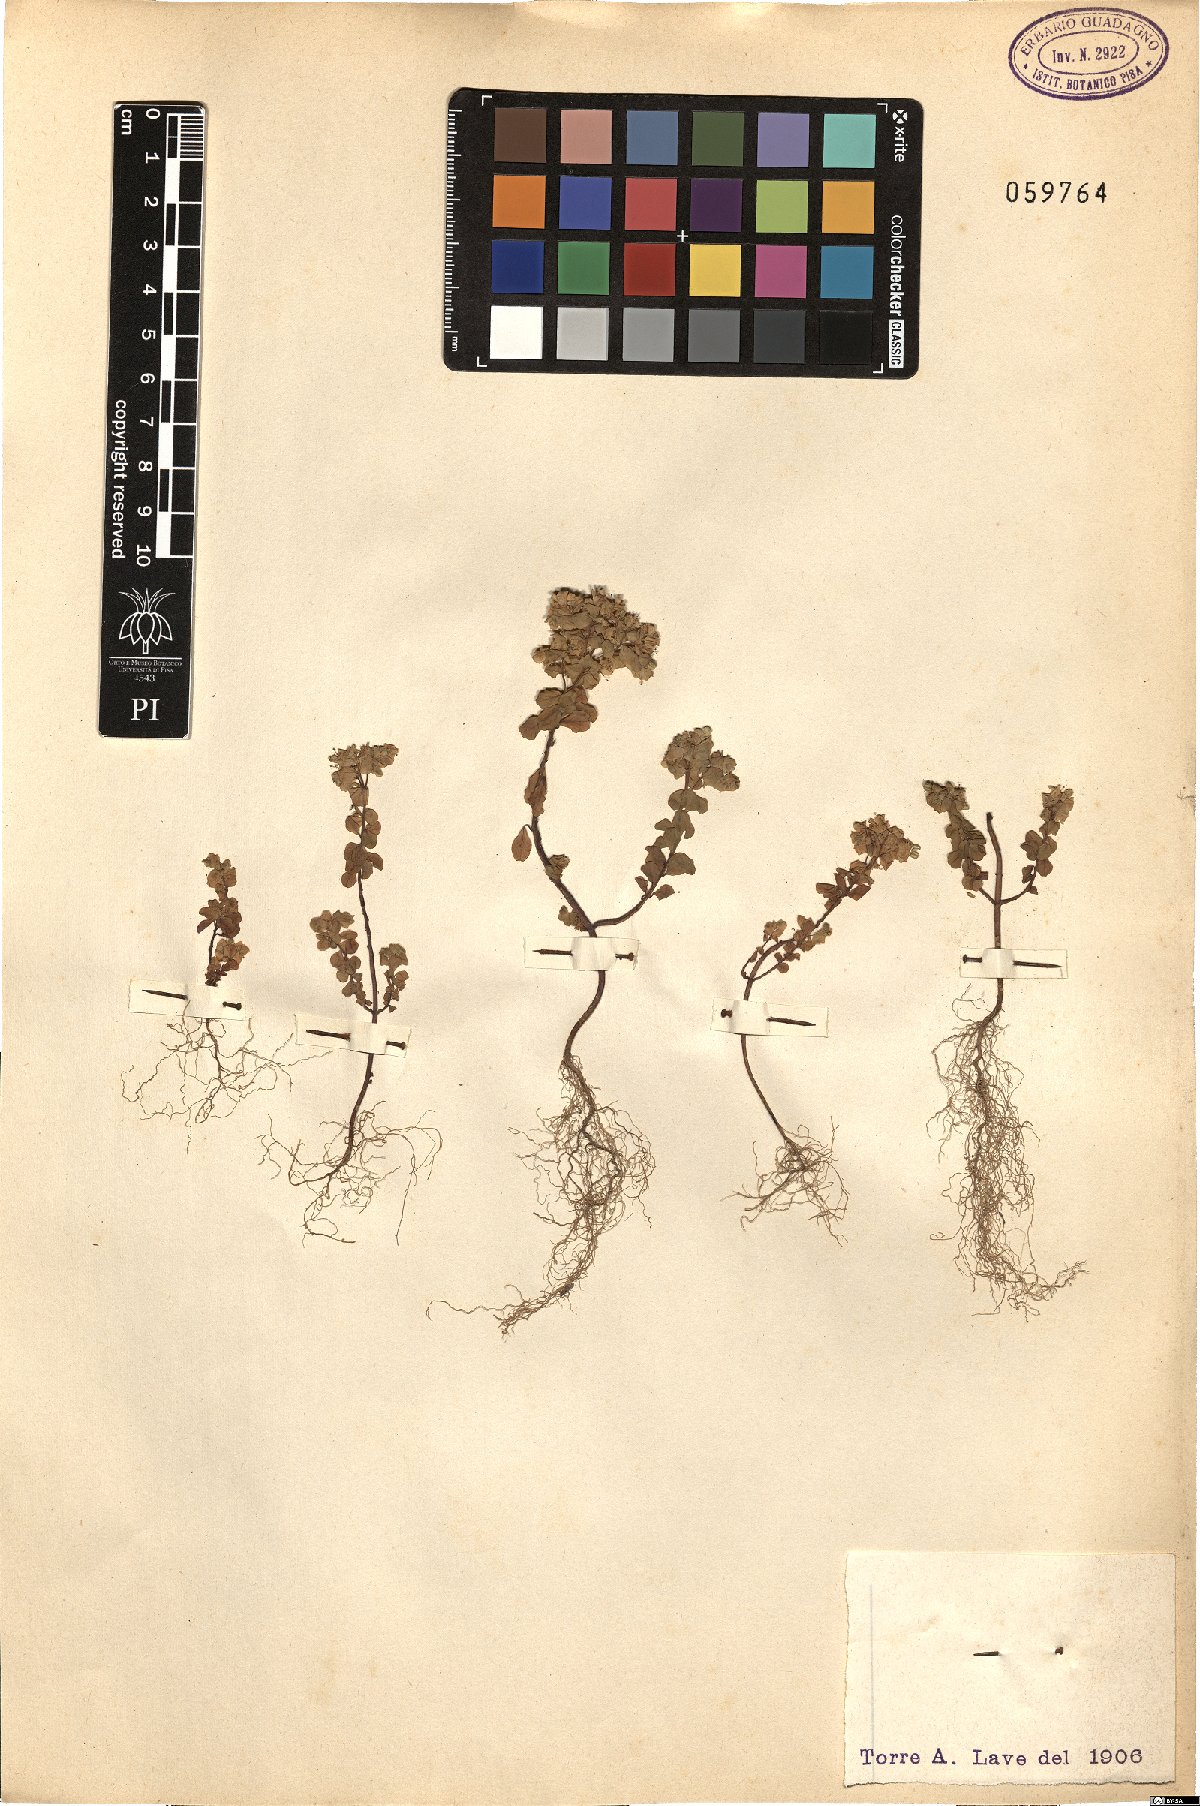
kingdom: Plantae
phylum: Tracheophyta
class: Magnoliopsida
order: Malpighiales
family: Euphorbiaceae
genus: Euphorbia
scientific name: Euphorbia helioscopia
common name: Sun spurge
